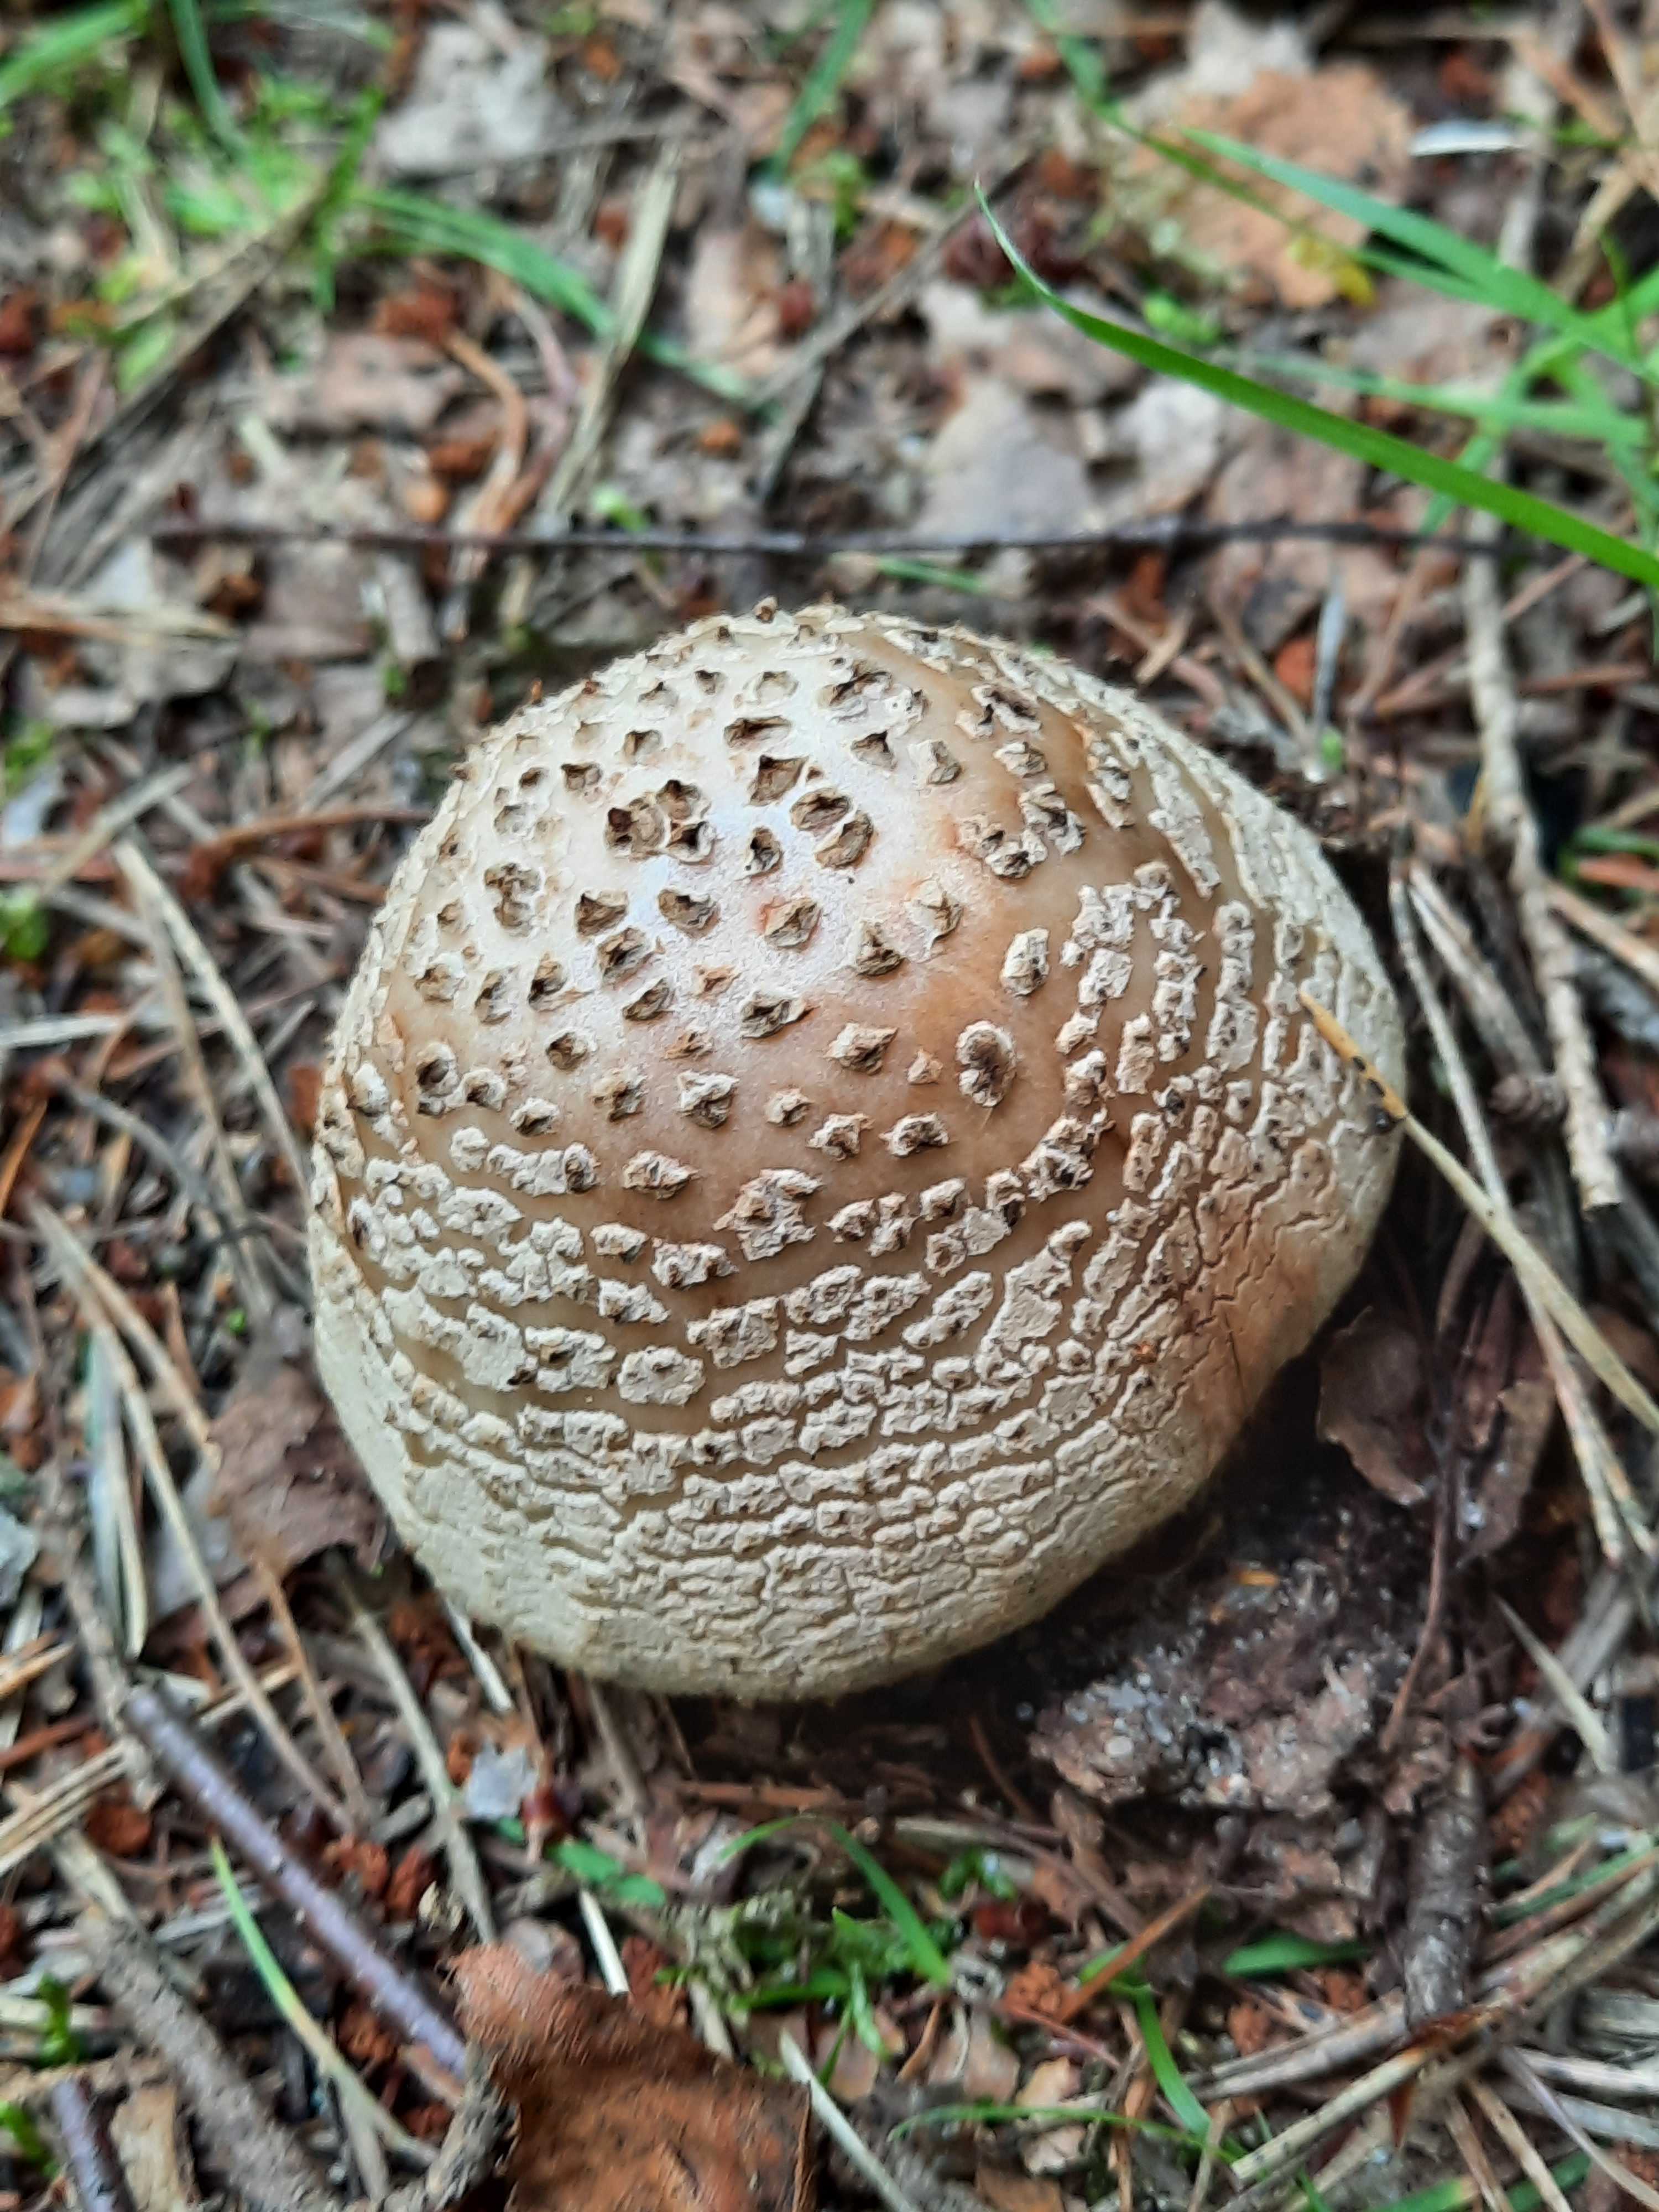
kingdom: Fungi
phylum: Basidiomycota
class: Agaricomycetes
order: Agaricales
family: Amanitaceae
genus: Amanita
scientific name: Amanita rubescens
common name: rødmende fluesvamp
